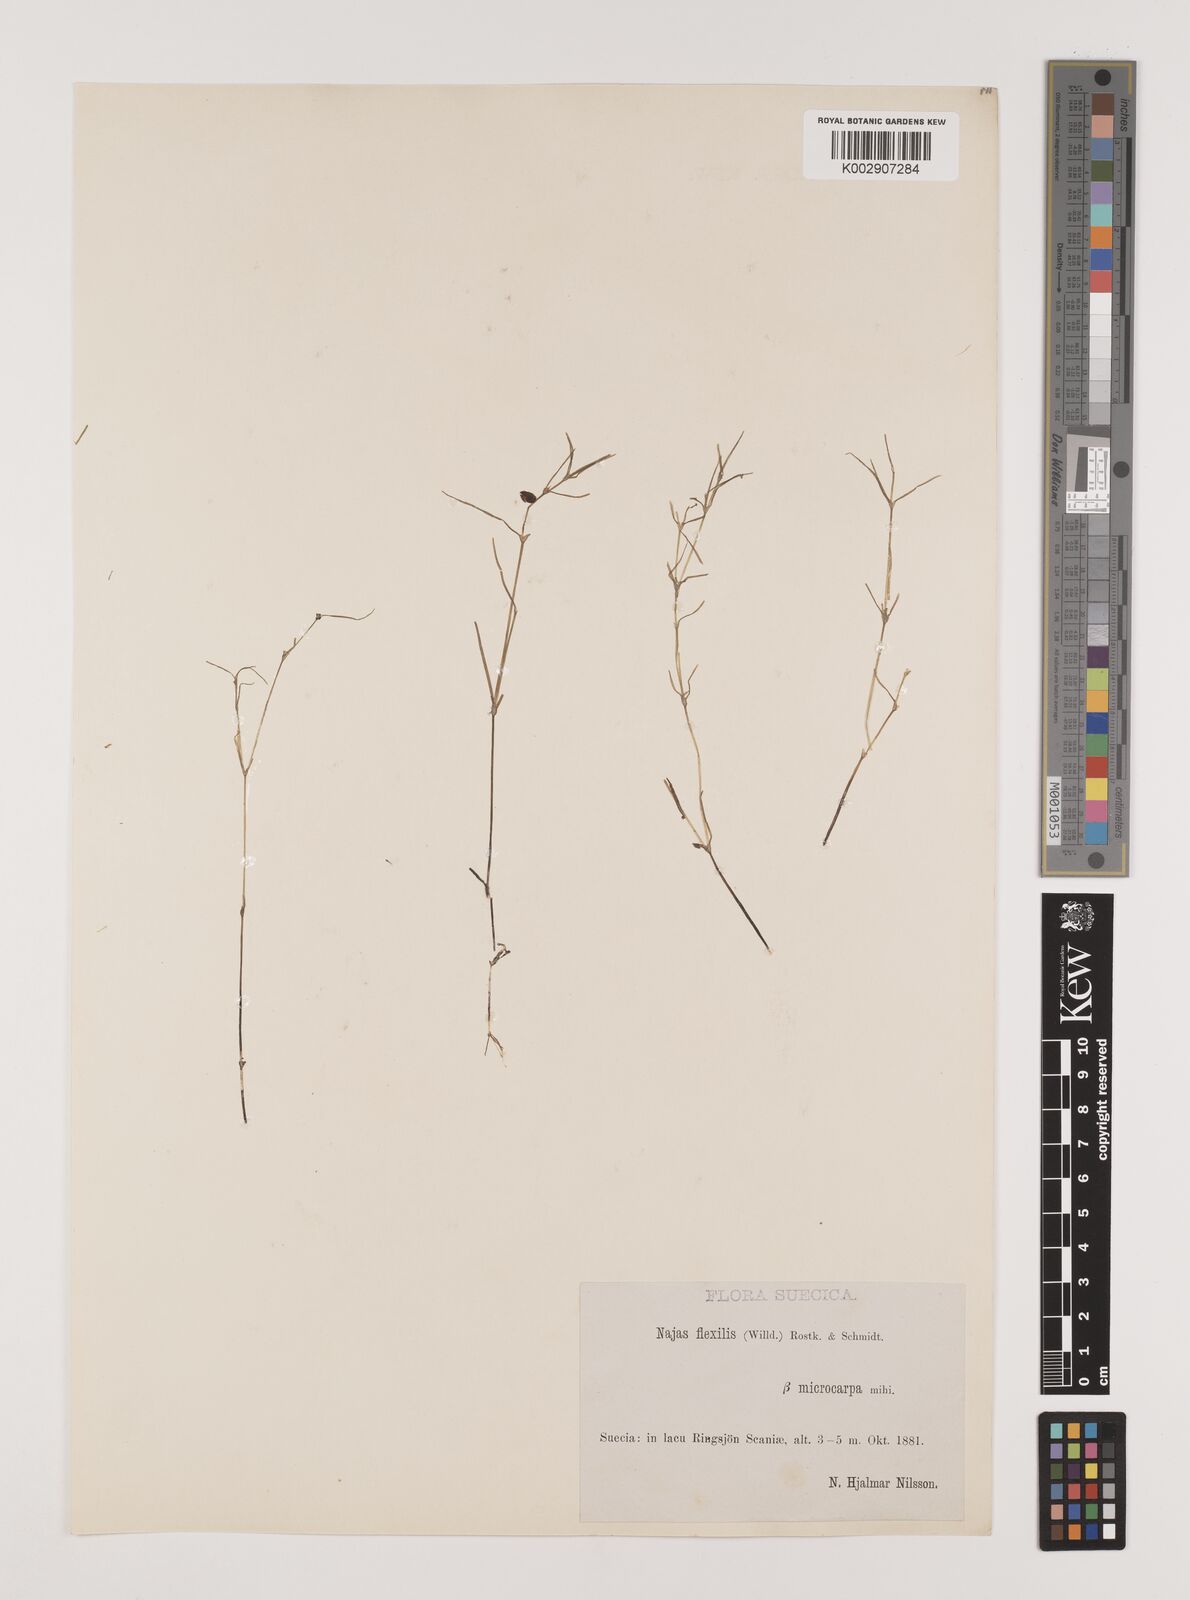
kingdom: Plantae
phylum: Tracheophyta
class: Liliopsida
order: Alismatales
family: Hydrocharitaceae
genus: Najas
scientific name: Najas flexilis
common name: Slender naiad
